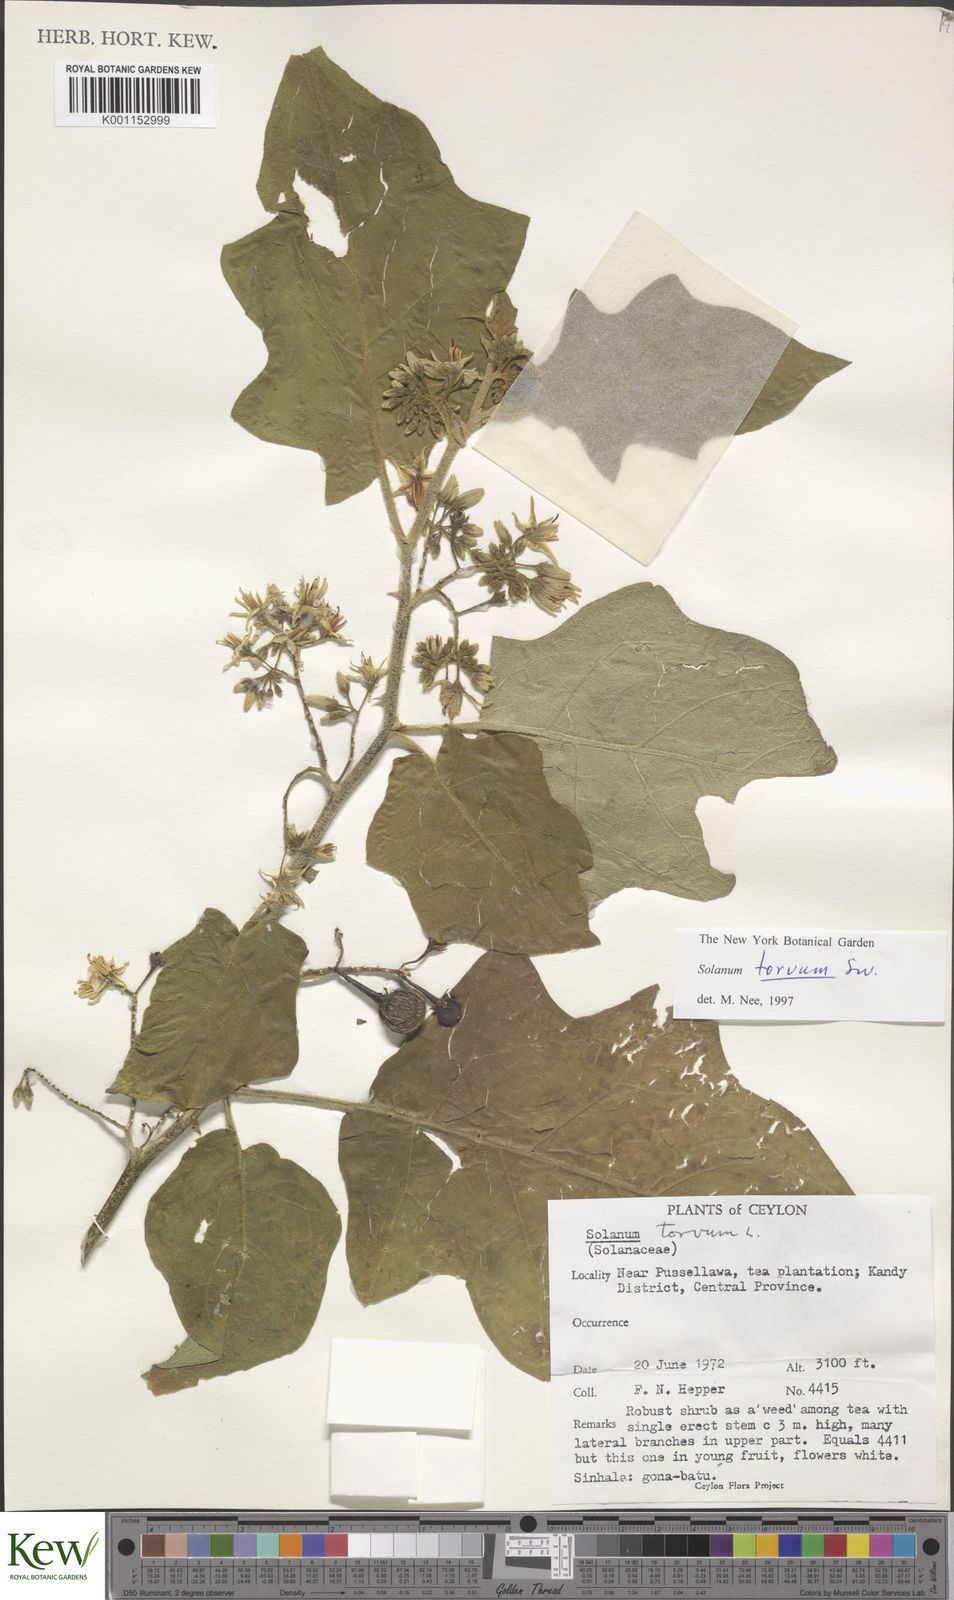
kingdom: Plantae
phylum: Tracheophyta
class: Magnoliopsida
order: Solanales
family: Solanaceae
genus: Solanum
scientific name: Solanum torvum
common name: Turkey berry
